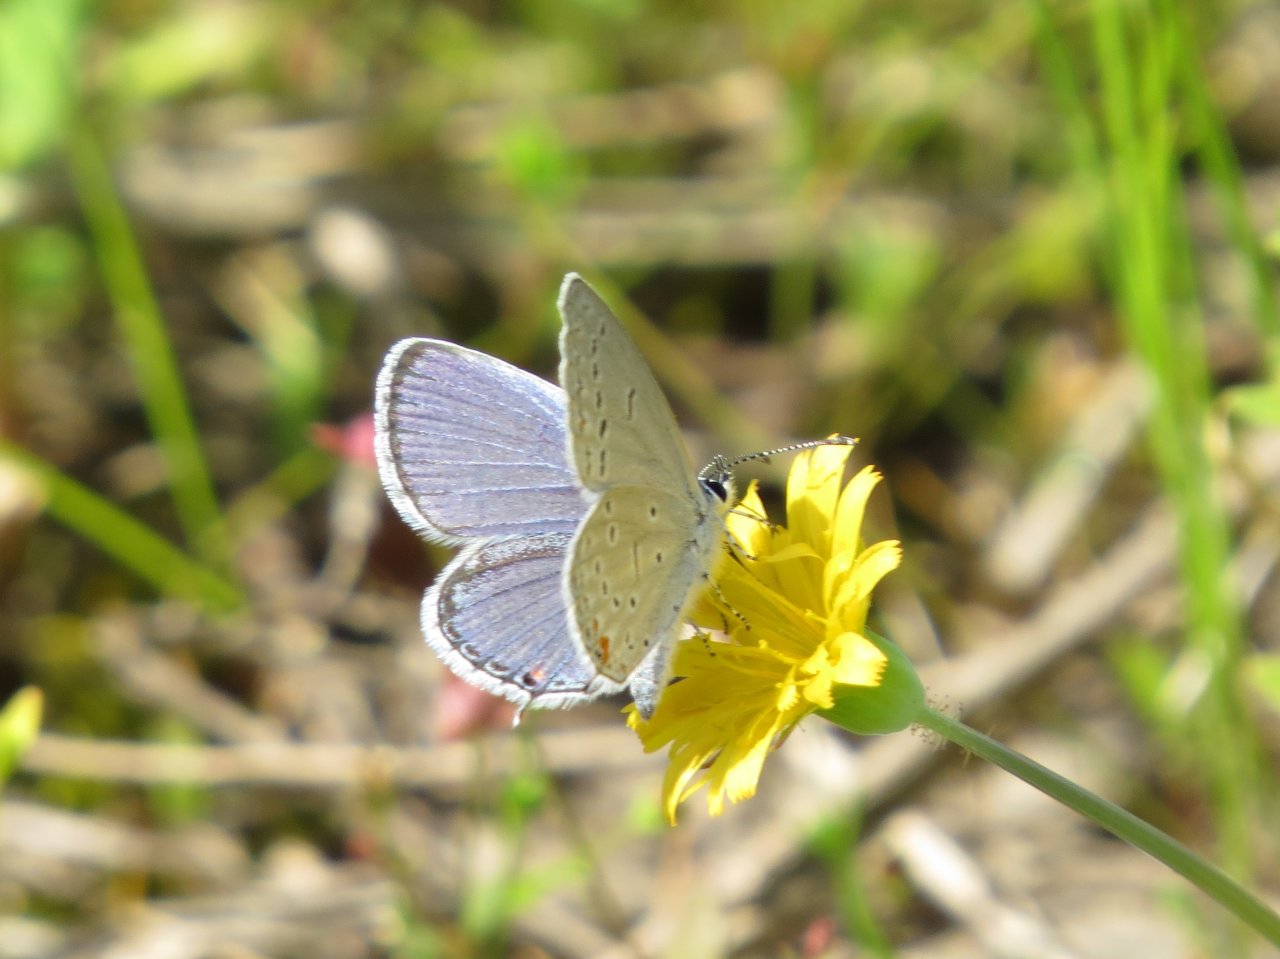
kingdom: Animalia
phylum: Arthropoda
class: Insecta
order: Lepidoptera
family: Lycaenidae
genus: Elkalyce
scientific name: Elkalyce comyntas
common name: Eastern Tailed-Blue
